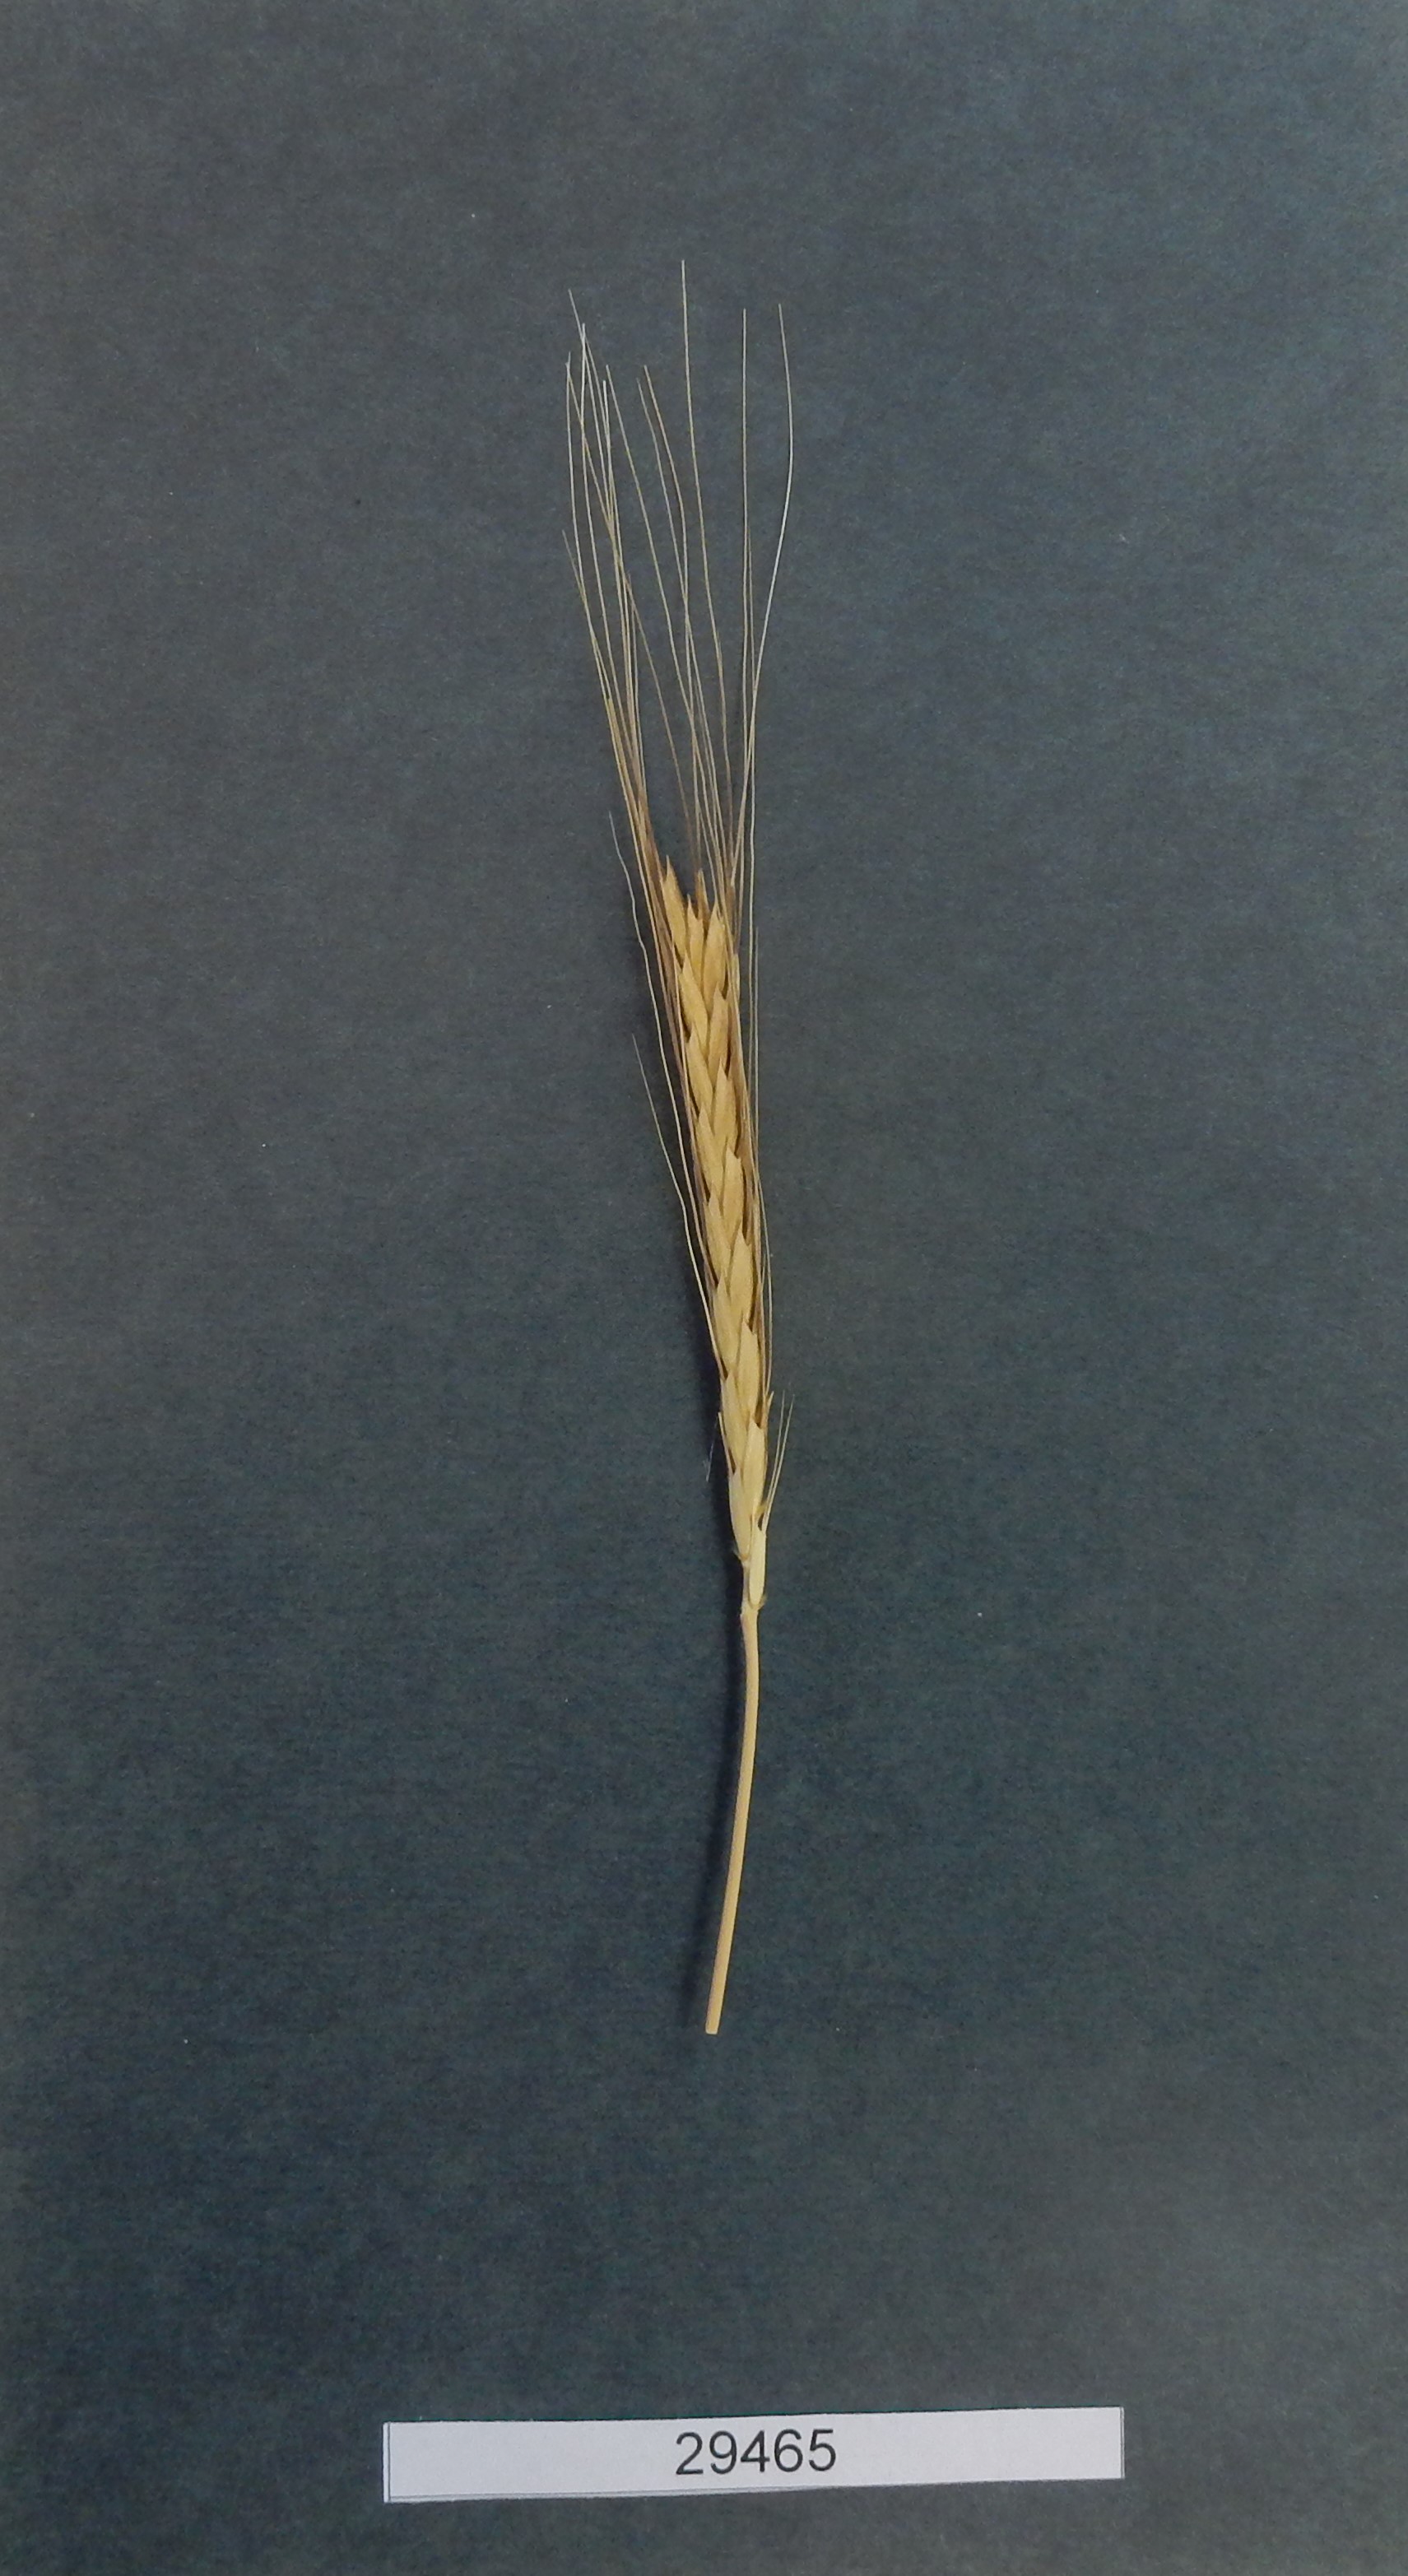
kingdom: Plantae
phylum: Tracheophyta
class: Liliopsida
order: Poales
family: Poaceae
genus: Triticum
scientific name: Triticum urartu
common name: Red wild einkorn
